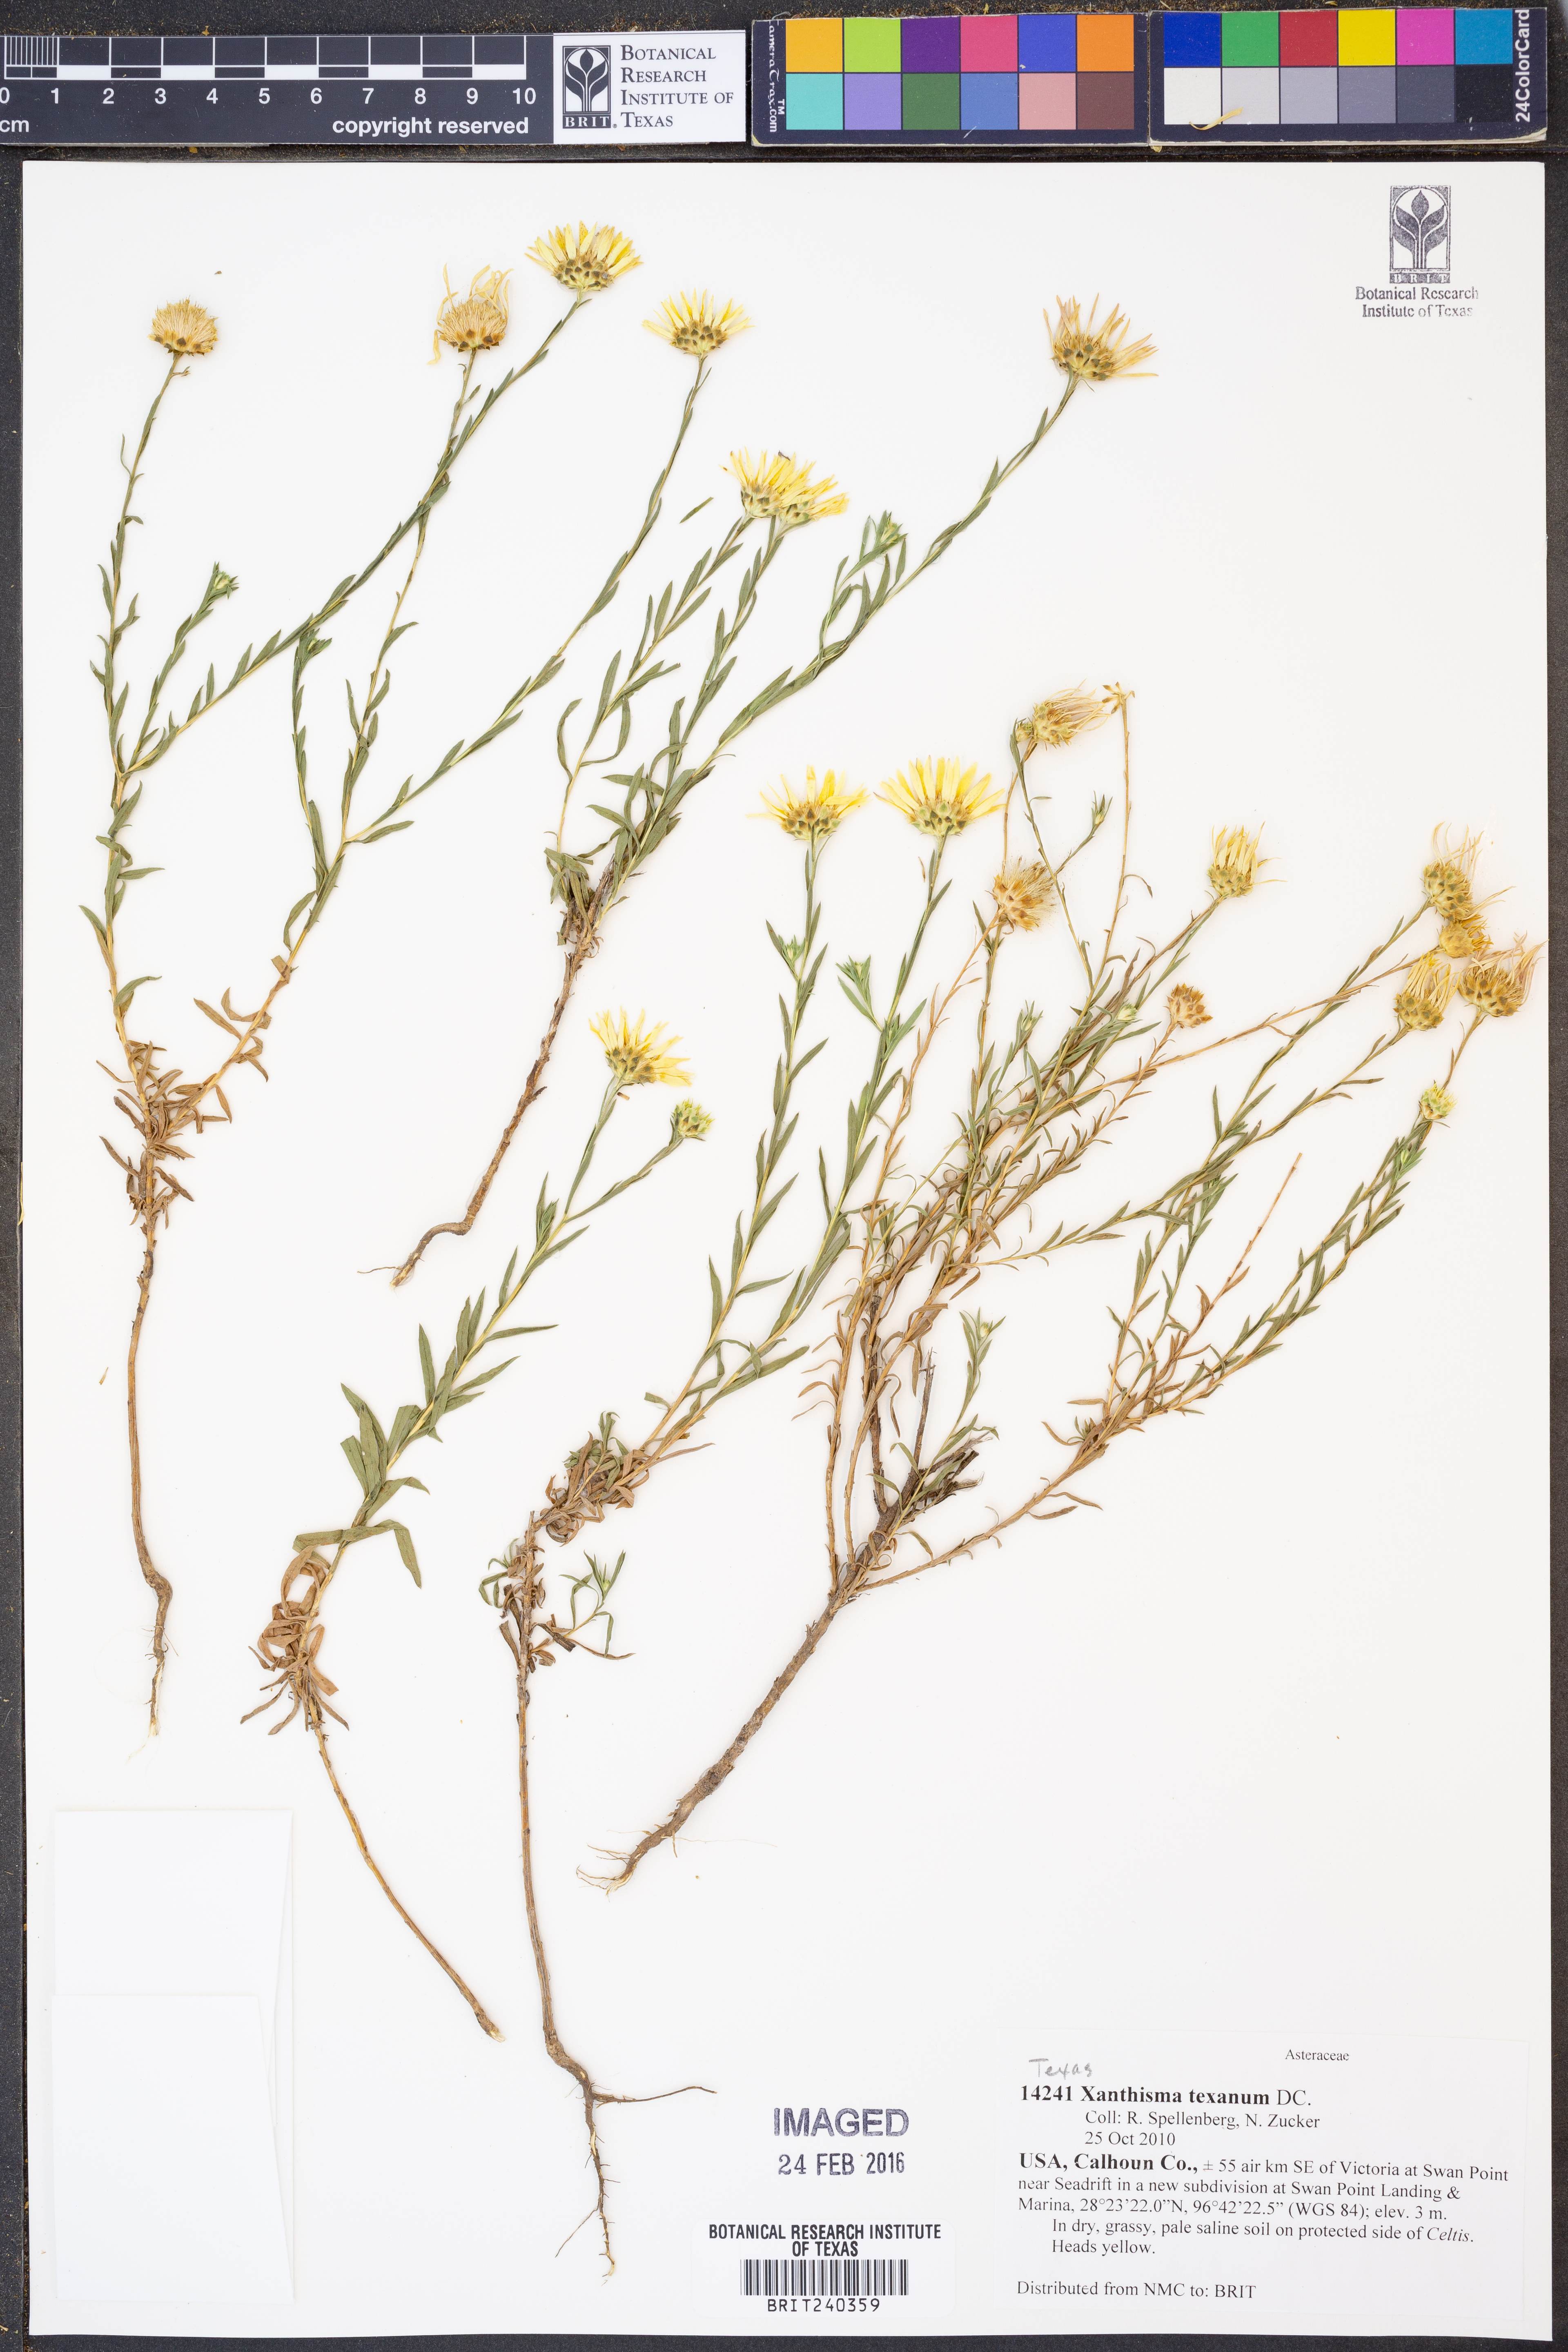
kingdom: Plantae
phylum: Tracheophyta
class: Magnoliopsida
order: Asterales
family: Asteraceae
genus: Xanthisma
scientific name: Xanthisma texanum
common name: Texas sleepy daisy
